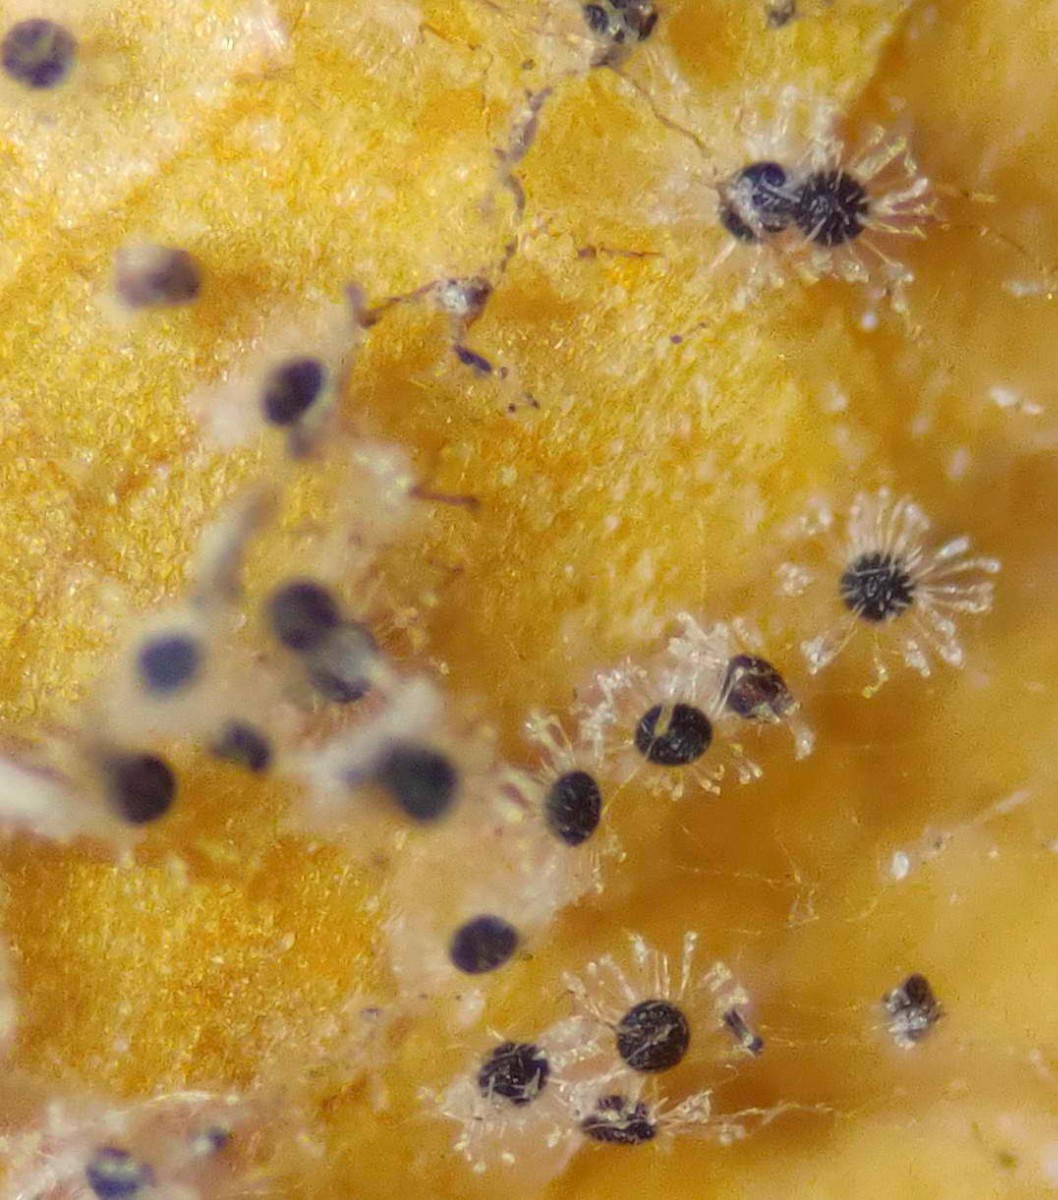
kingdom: Fungi
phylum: Ascomycota
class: Leotiomycetes
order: Helotiales
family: Erysiphaceae
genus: Erysiphe
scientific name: Erysiphe flexuosa
